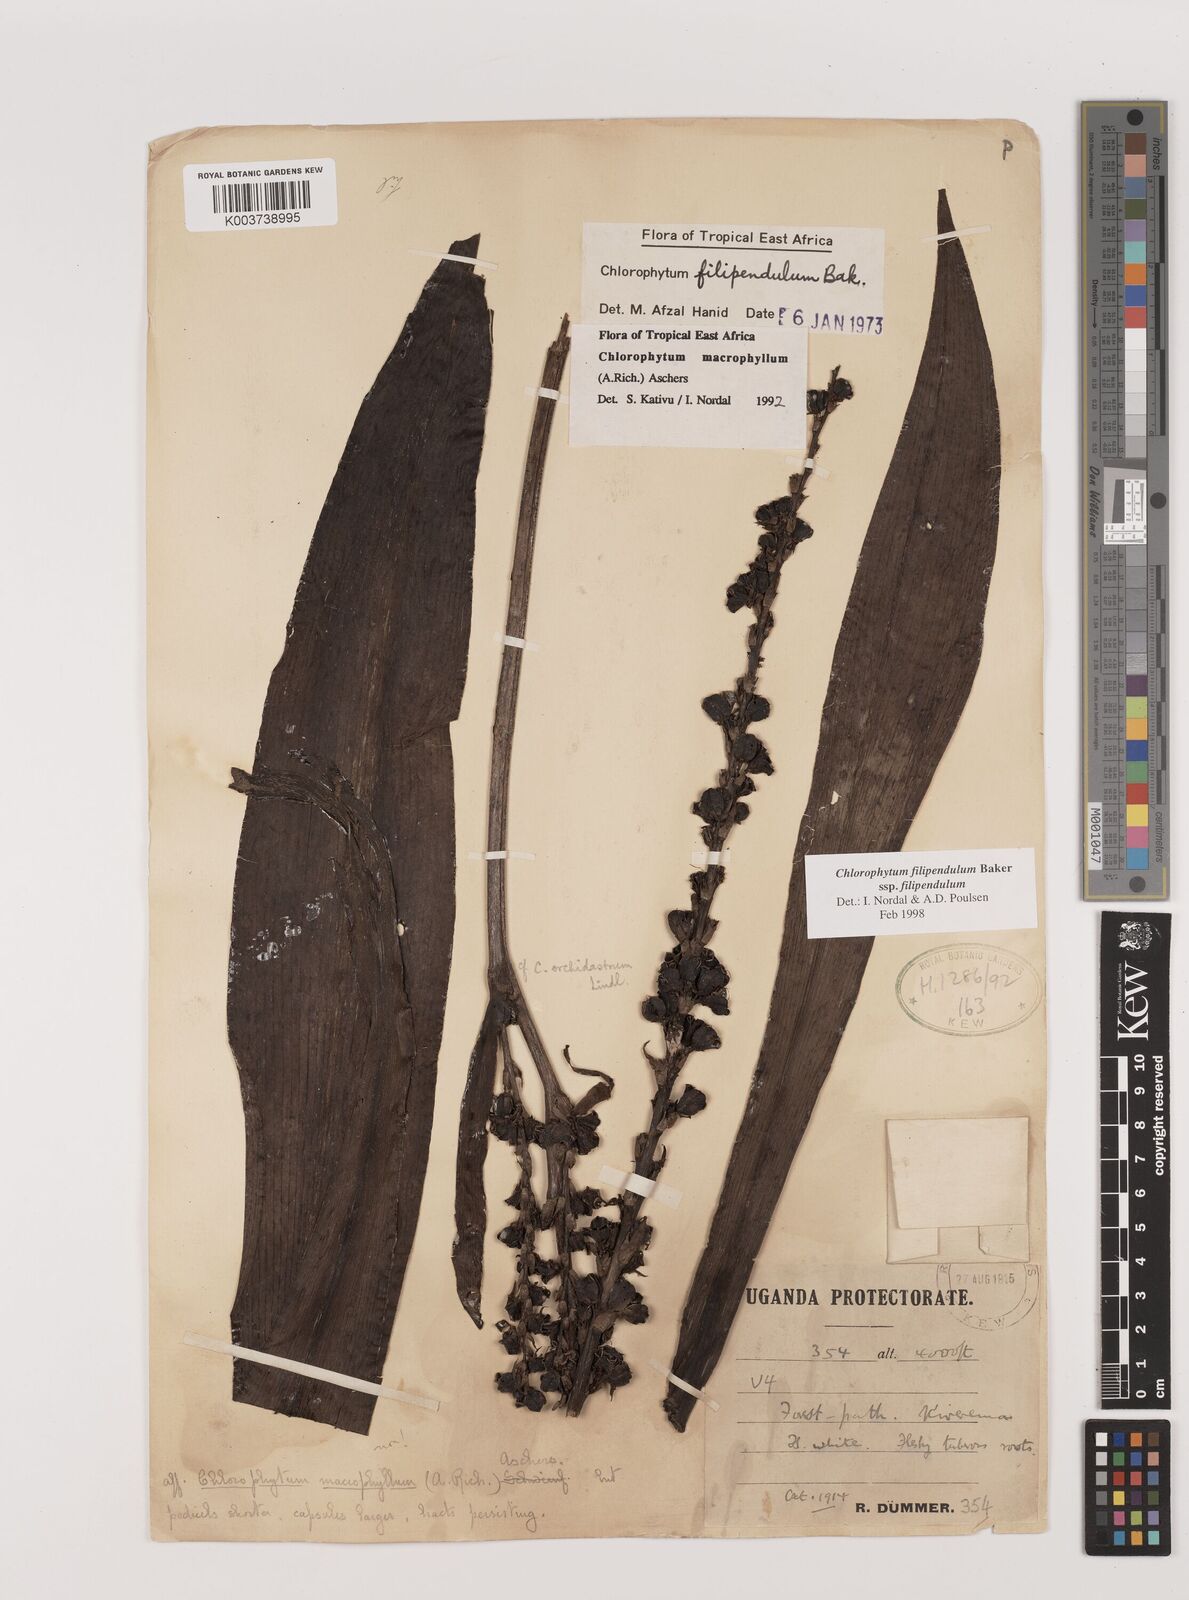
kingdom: Plantae
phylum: Tracheophyta
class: Liliopsida
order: Asparagales
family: Asparagaceae
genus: Chlorophytum
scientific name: Chlorophytum filipendulum
